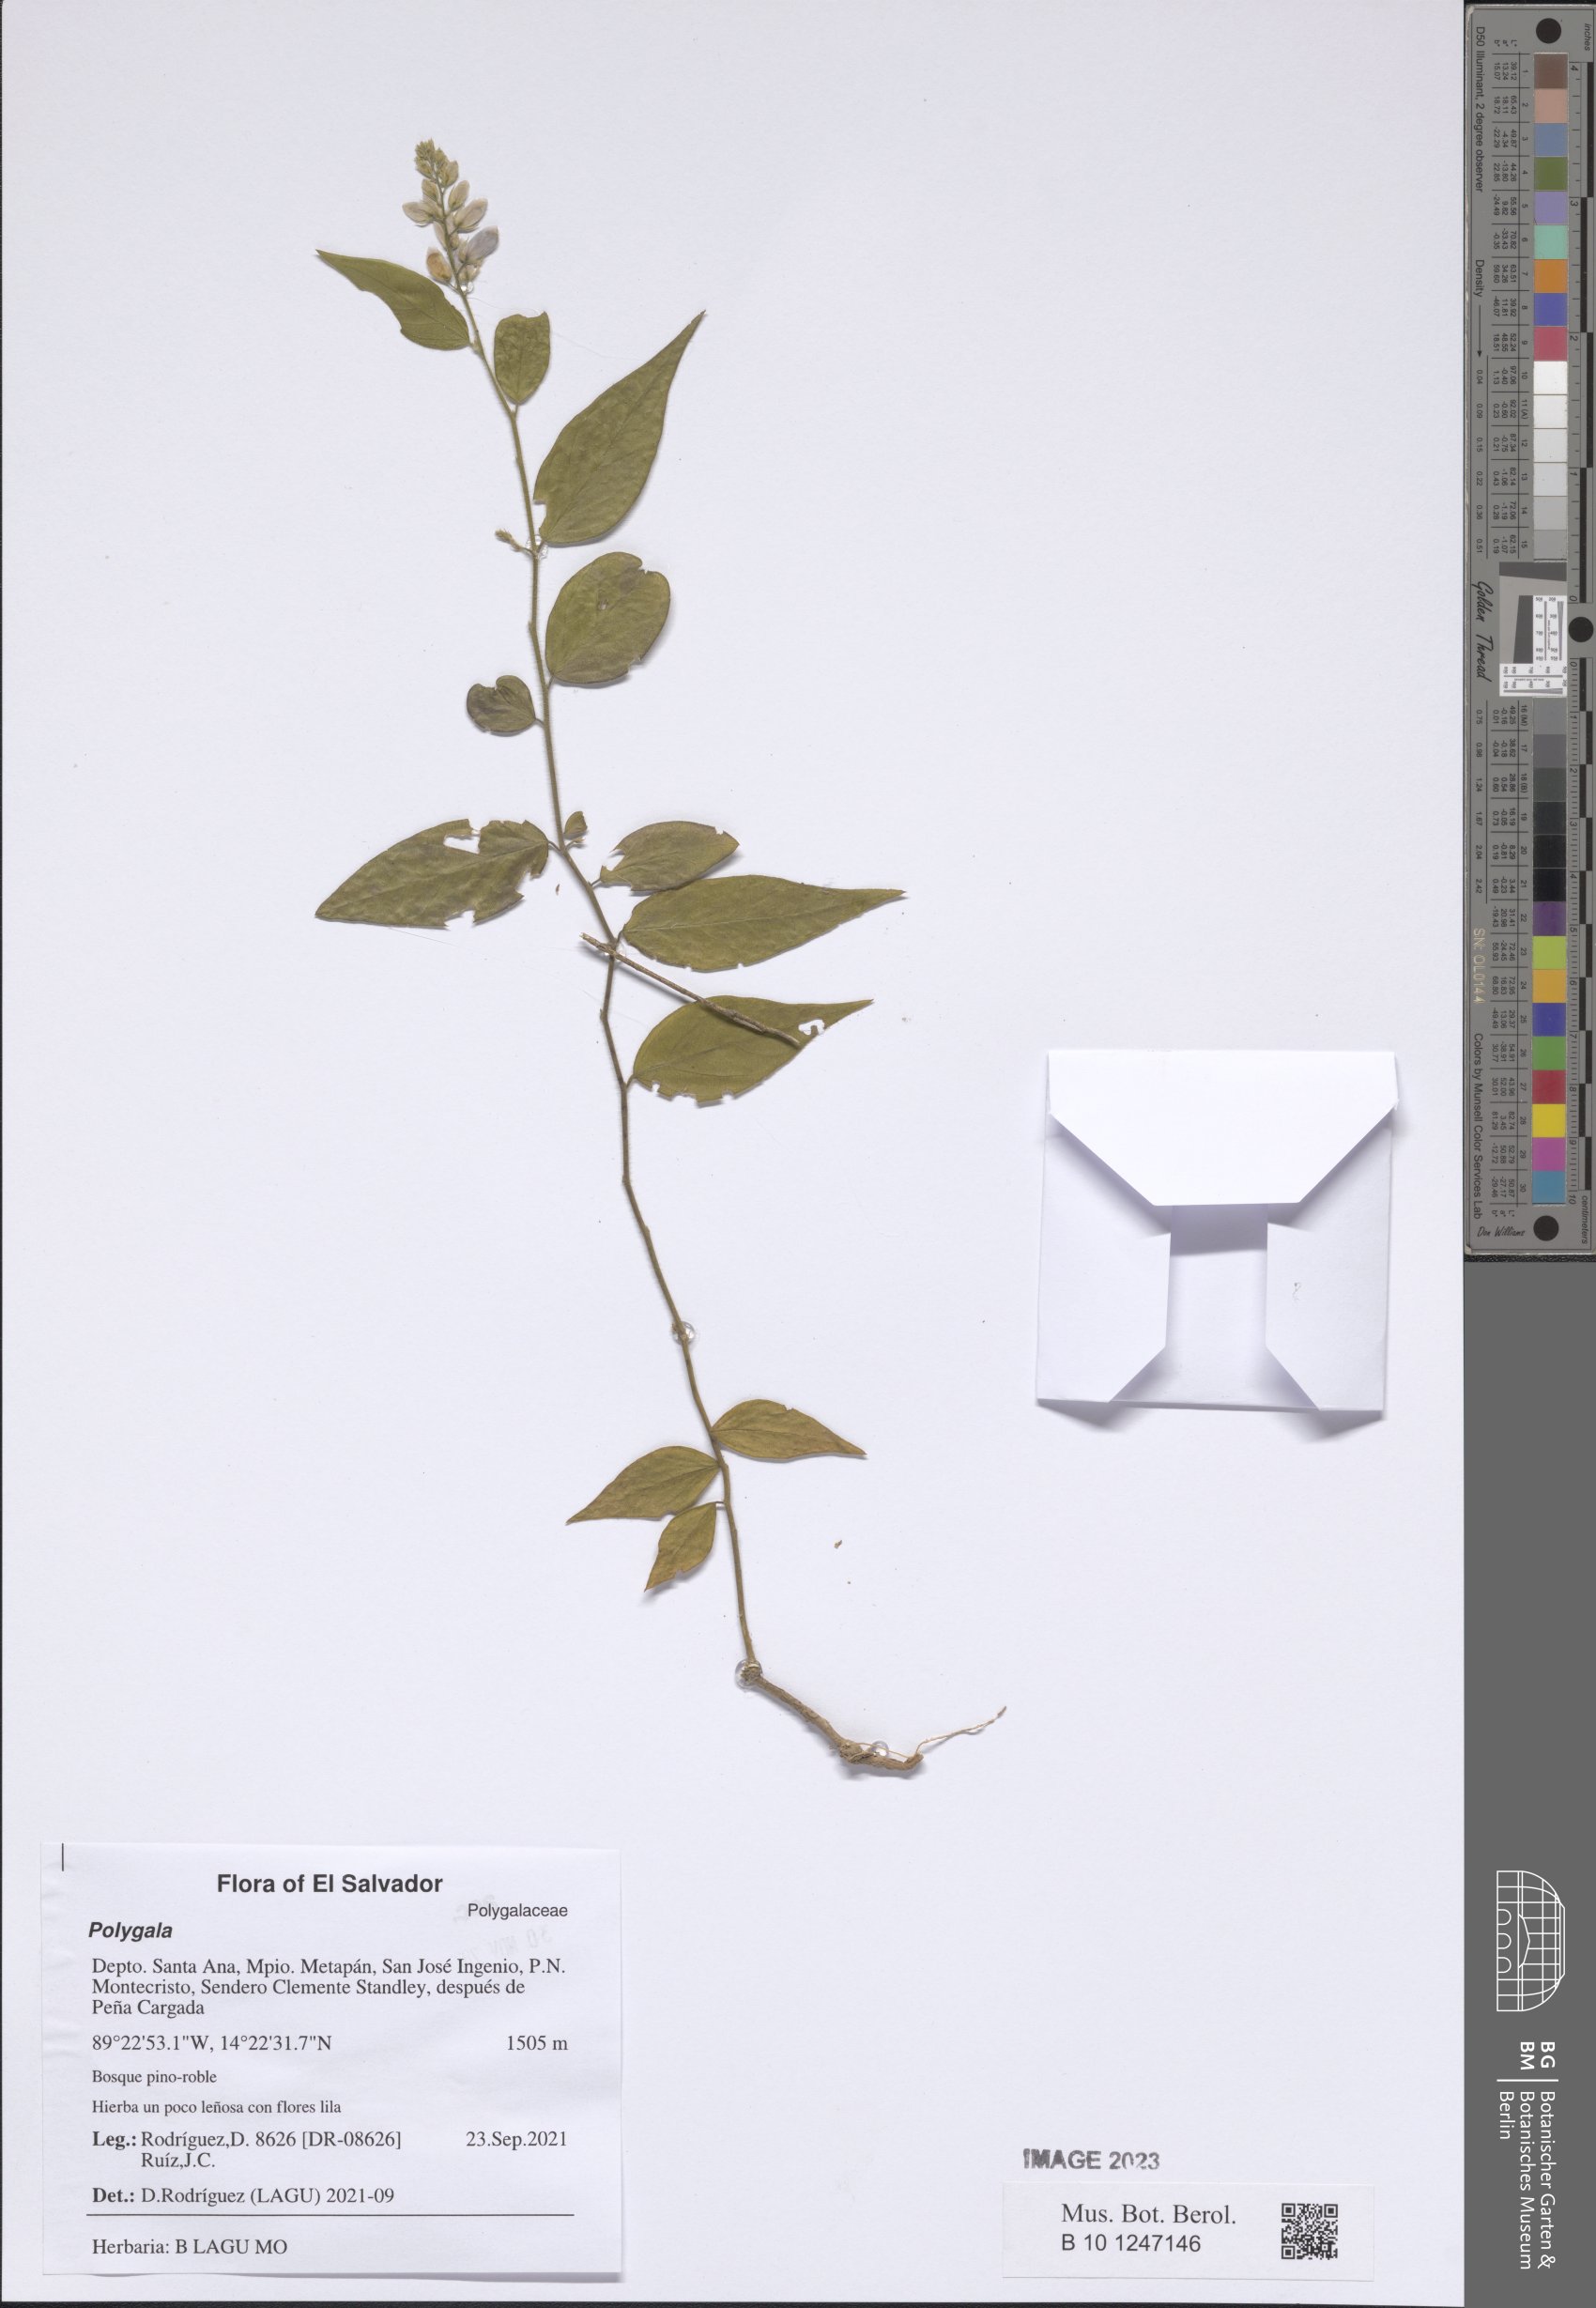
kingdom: Plantae
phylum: Tracheophyta
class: Magnoliopsida
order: Fabales
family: Polygalaceae
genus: Polygala
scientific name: Polygala
